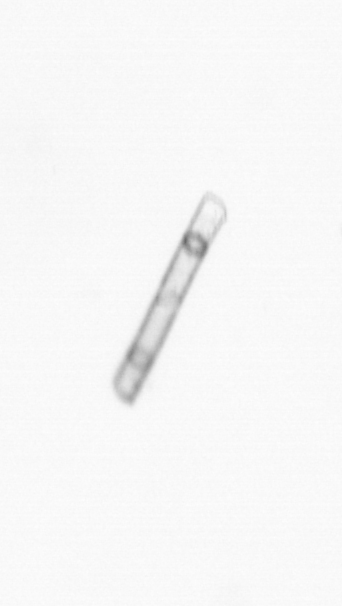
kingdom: Chromista
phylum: Ochrophyta
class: Bacillariophyceae
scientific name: Bacillariophyceae
